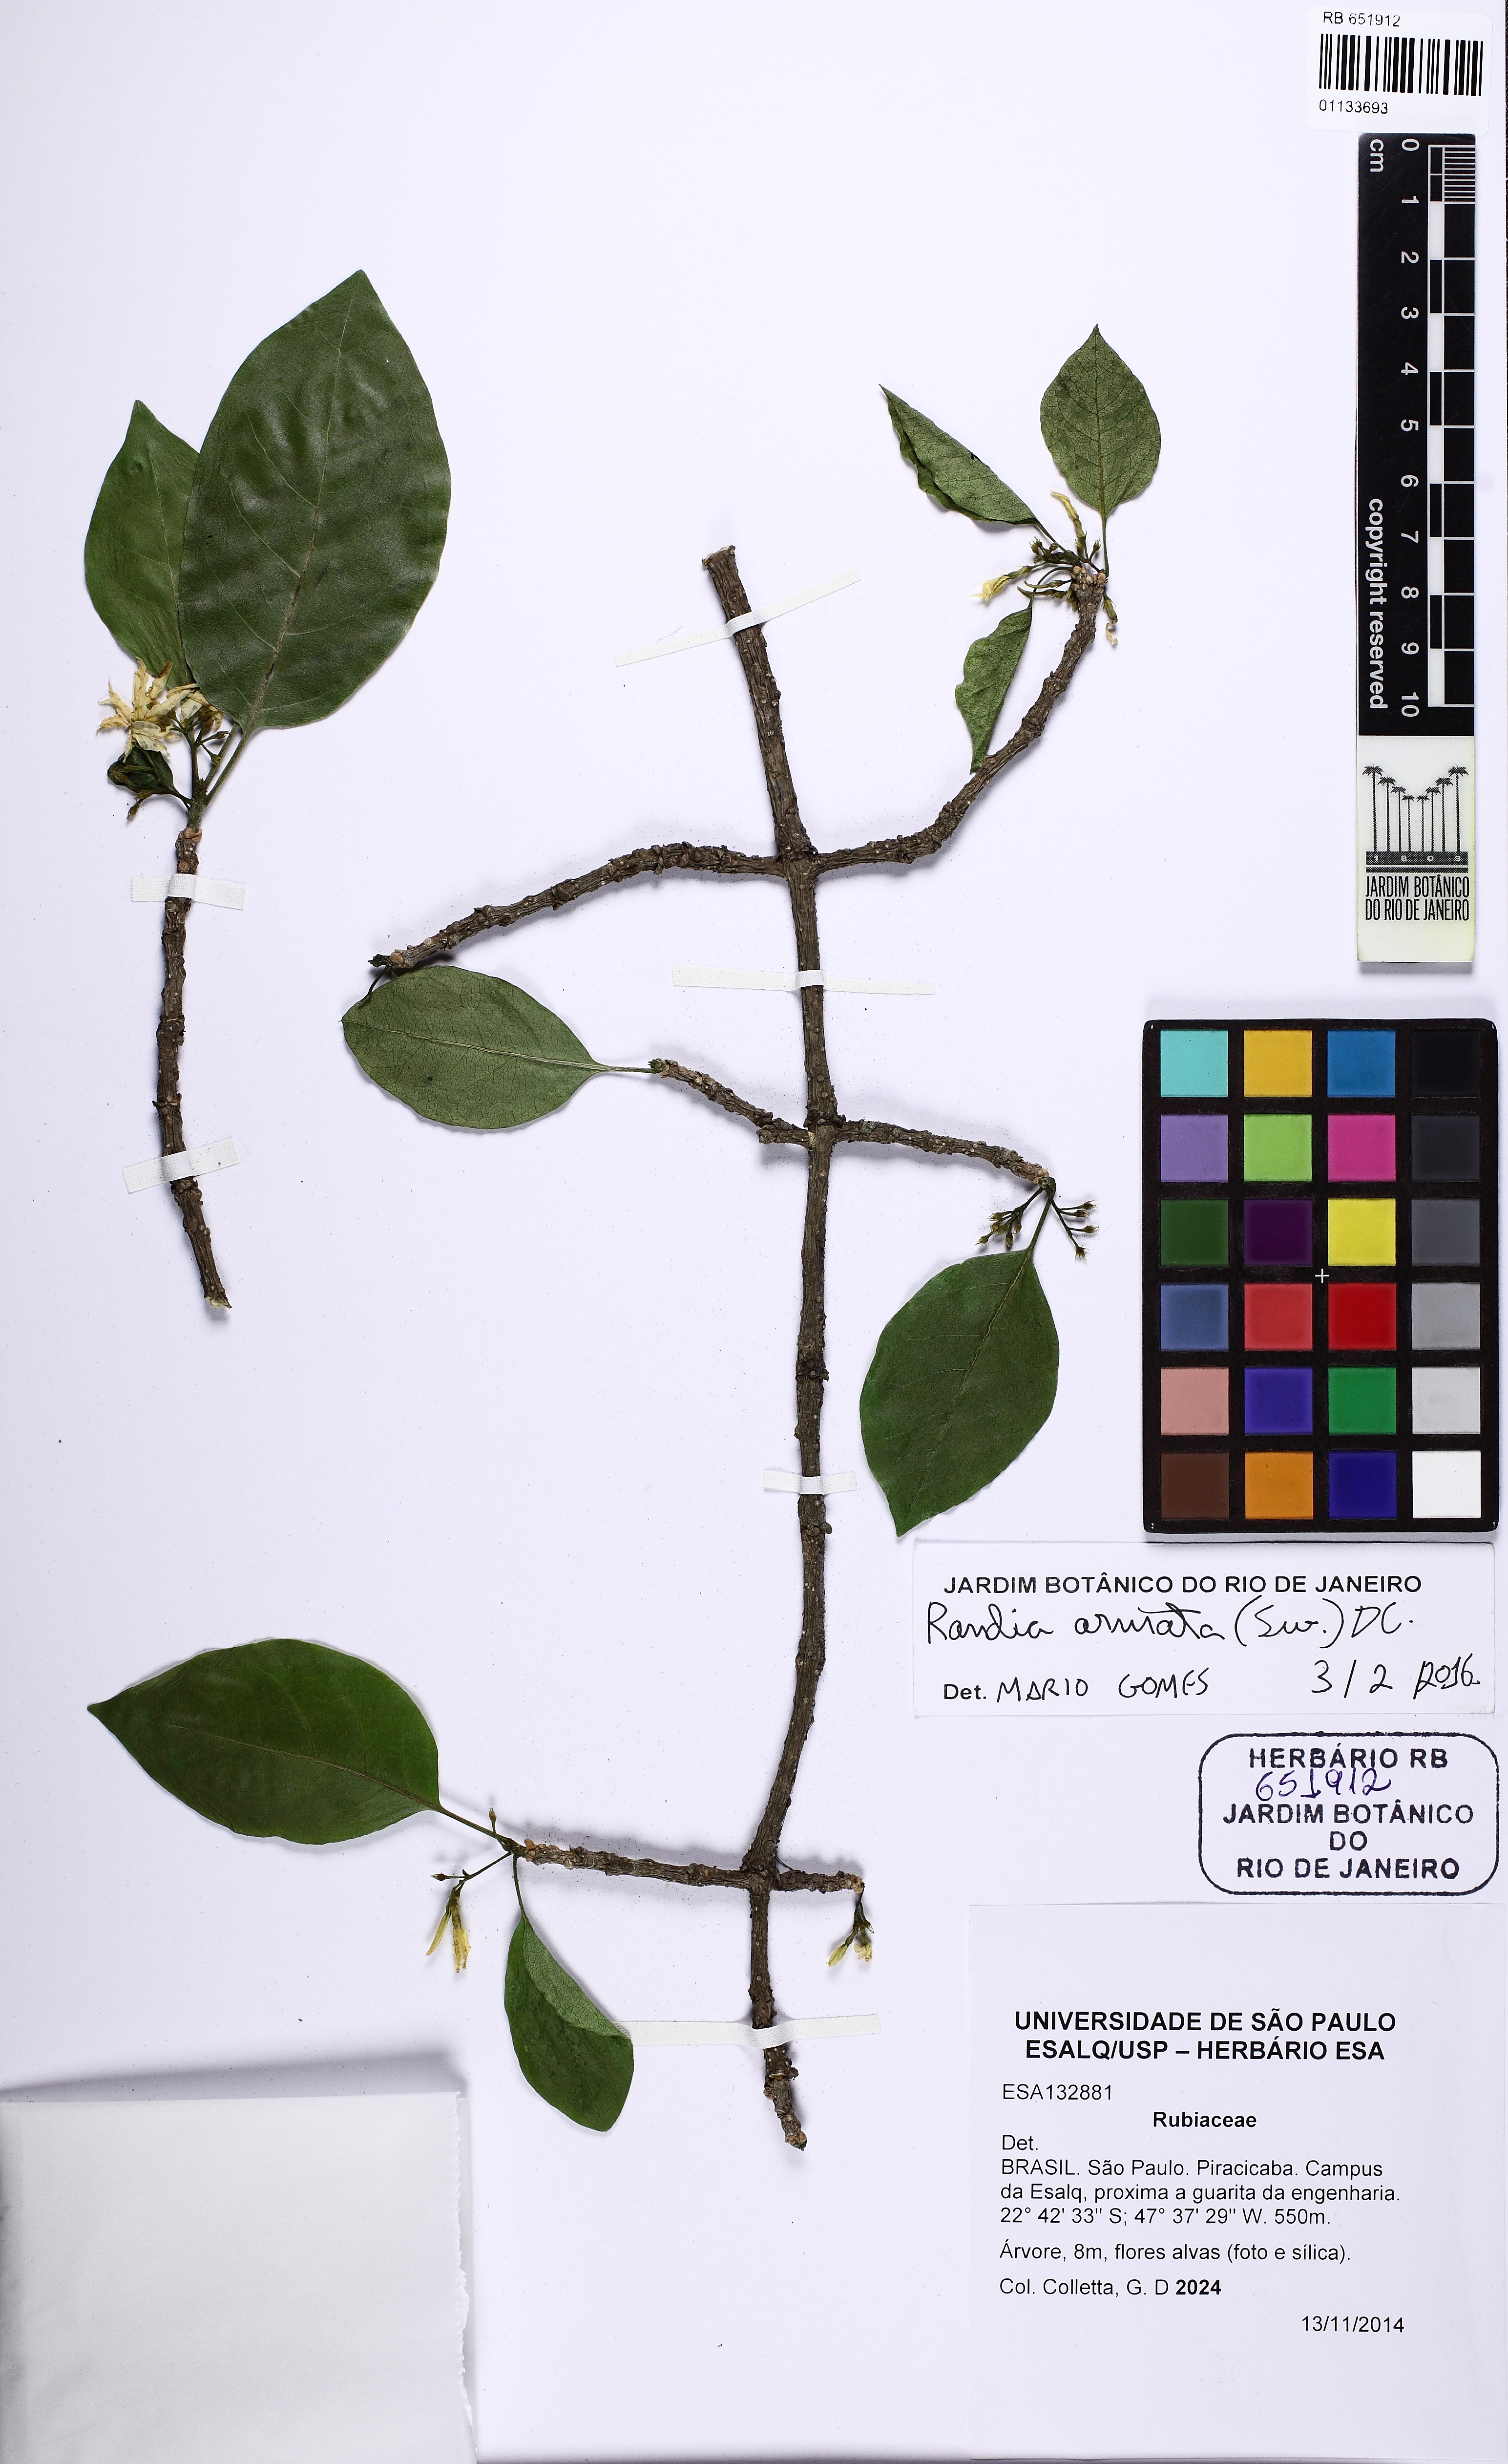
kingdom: Plantae
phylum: Tracheophyta
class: Magnoliopsida
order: Gentianales
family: Rubiaceae
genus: Randia
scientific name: Randia armata
